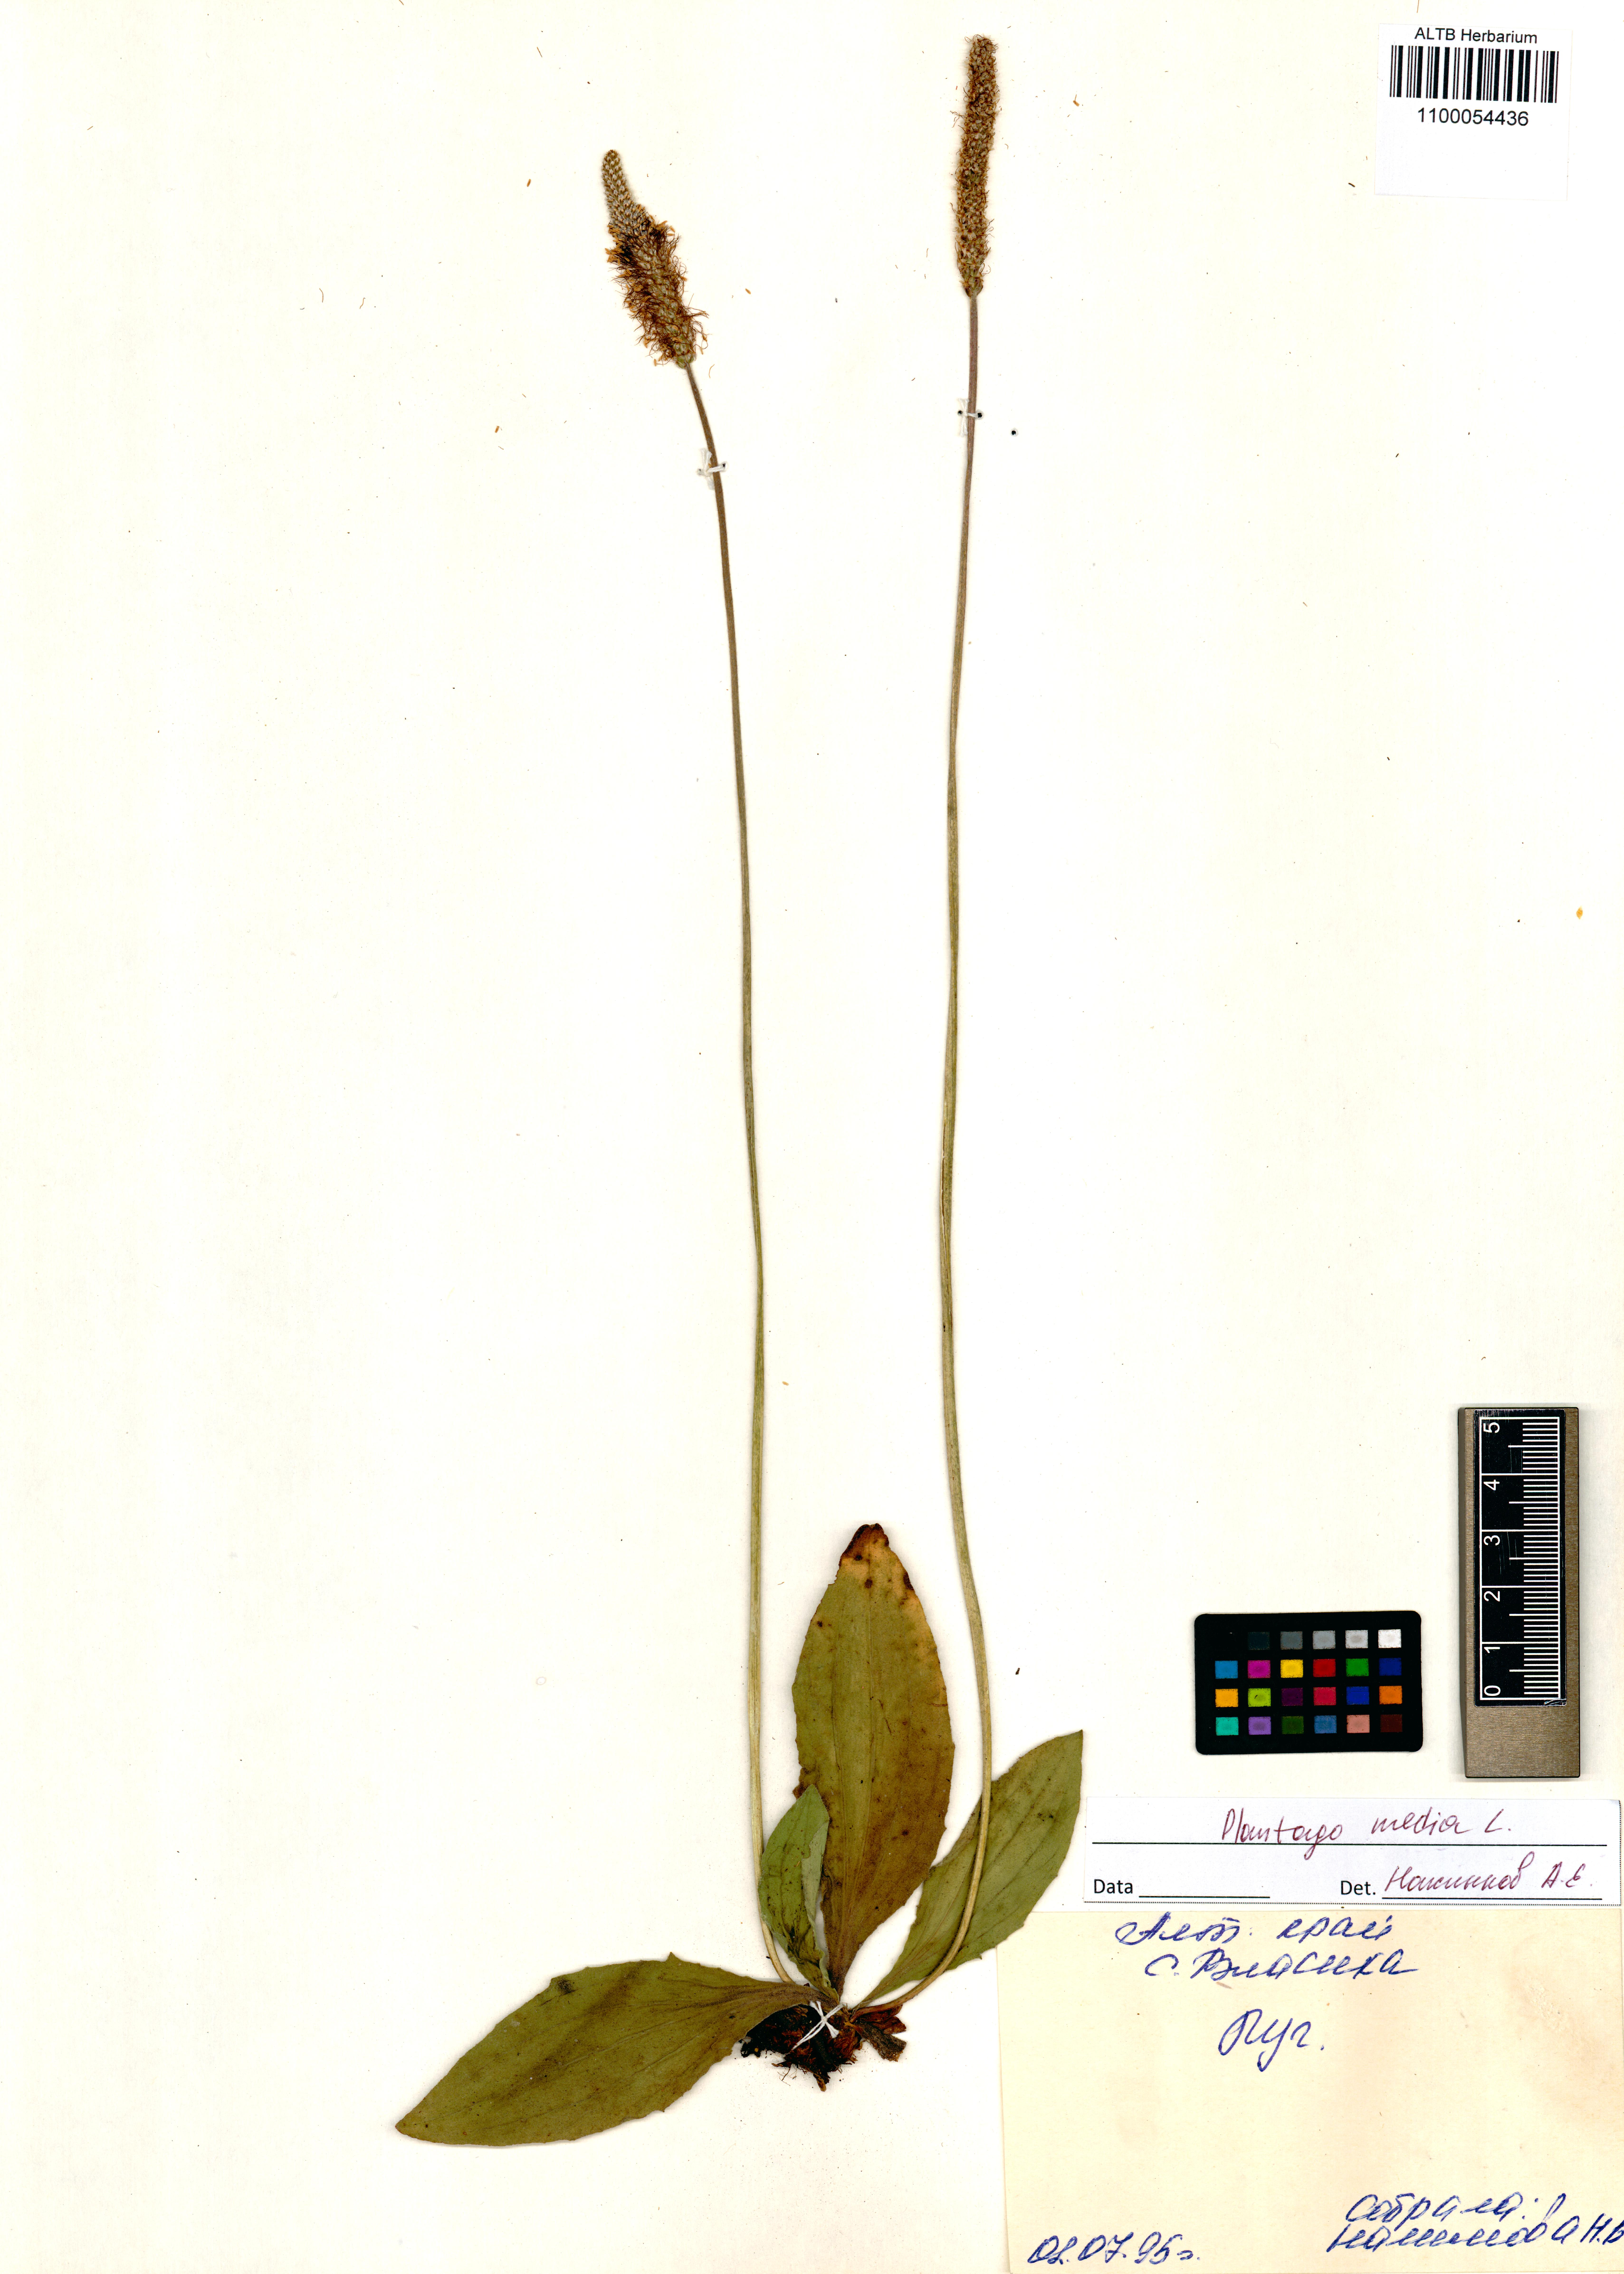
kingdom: Plantae
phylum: Tracheophyta
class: Magnoliopsida
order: Lamiales
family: Plantaginaceae
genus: Plantago
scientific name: Plantago media
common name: Hoary plantain
